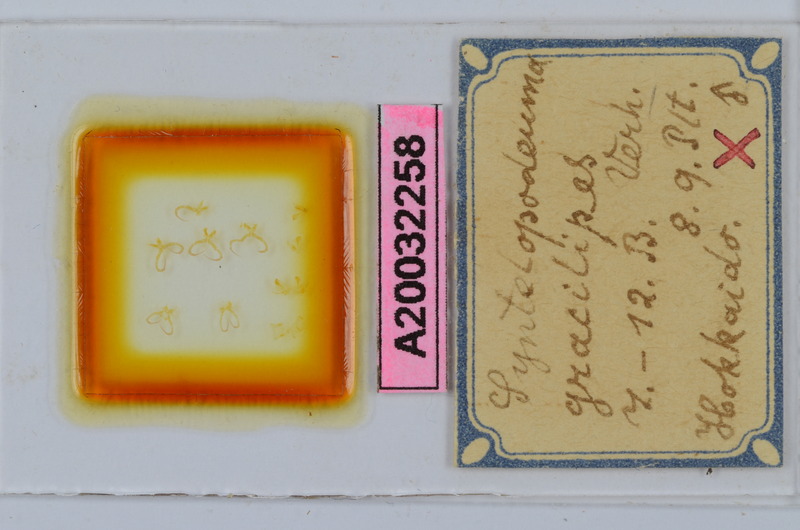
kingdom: Animalia
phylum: Arthropoda
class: Diplopoda
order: Chordeumatida
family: Diplomaragnidae
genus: Diplomaragna
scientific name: Diplomaragna gracilipes
